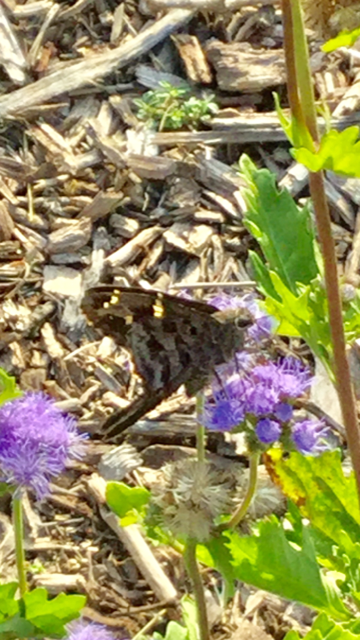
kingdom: Animalia
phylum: Arthropoda
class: Insecta
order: Lepidoptera
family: Hesperiidae
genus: Urbanus
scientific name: Urbanus dorantes
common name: Dorantes Longtail
